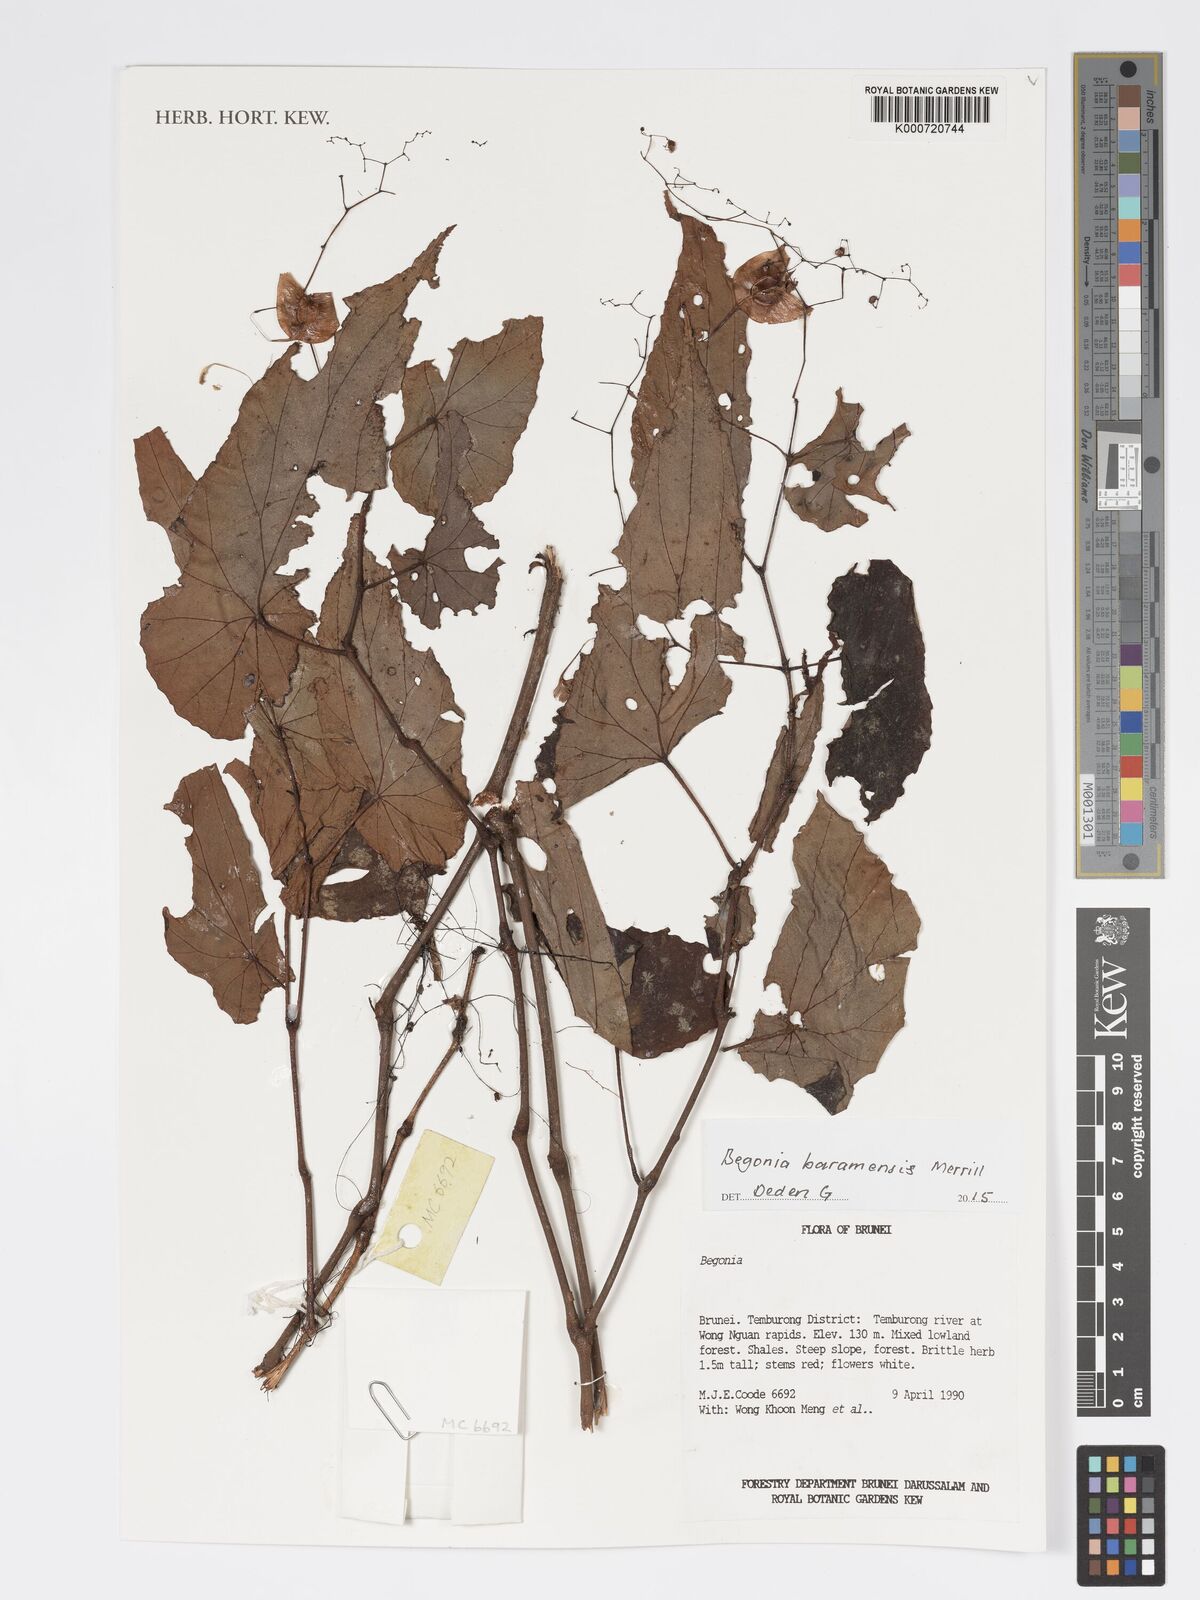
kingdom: Plantae
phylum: Tracheophyta
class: Magnoliopsida
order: Cucurbitales
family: Begoniaceae
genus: Begonia
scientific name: Begonia baramensis
